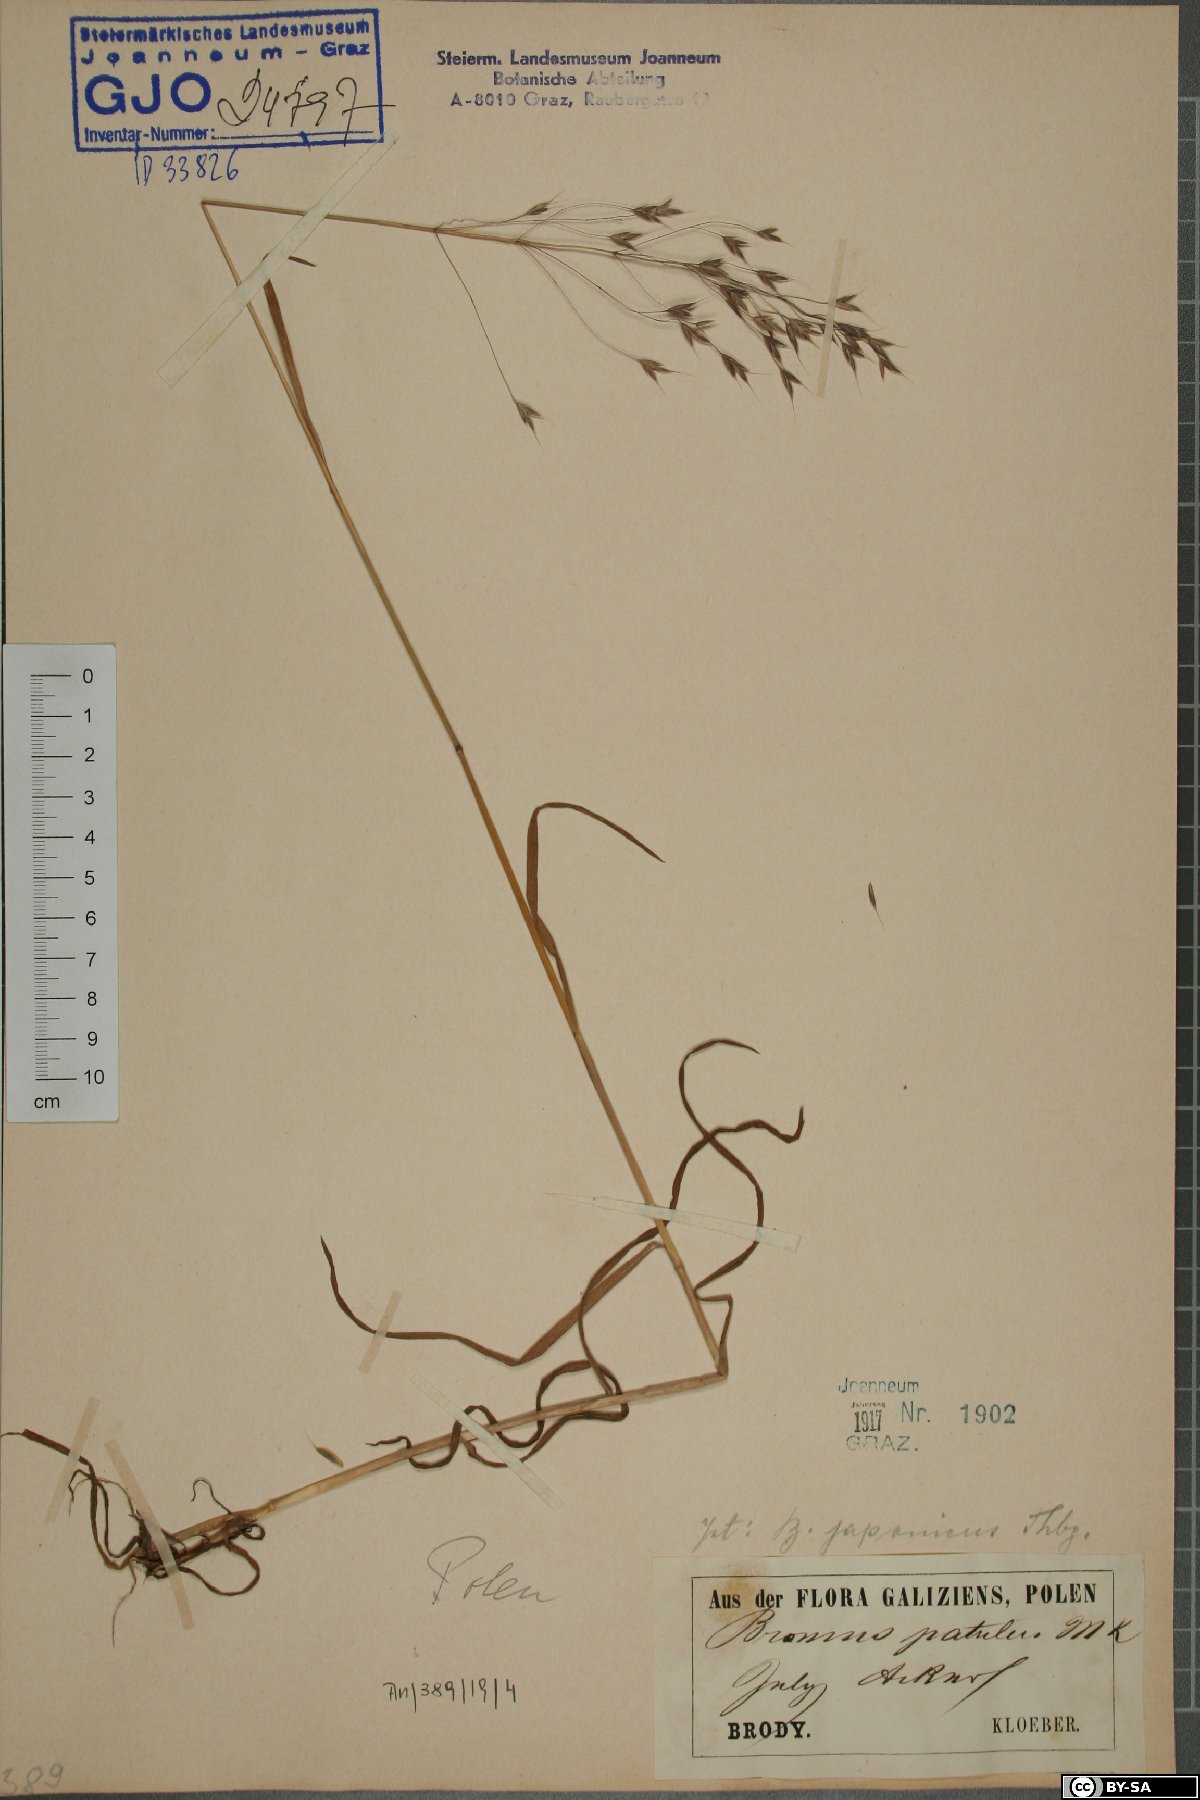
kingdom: Plantae
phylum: Tracheophyta
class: Liliopsida
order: Poales
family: Poaceae
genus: Bromus
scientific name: Bromus japonicus
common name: Japanese brome
